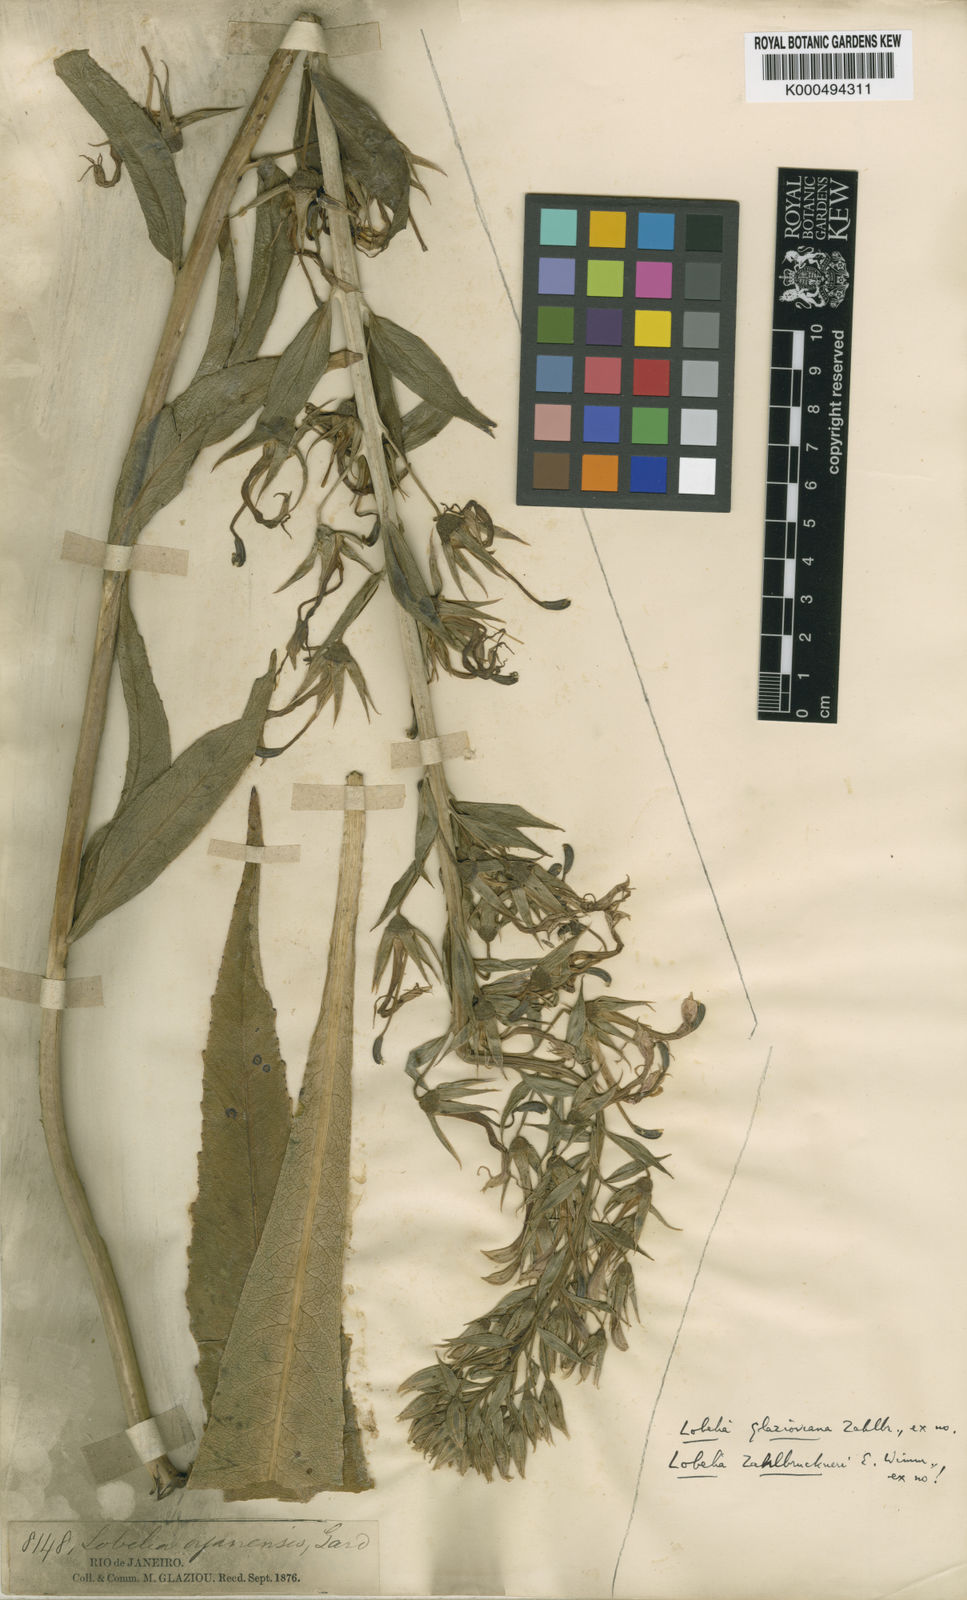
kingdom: Plantae
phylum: Tracheophyta
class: Magnoliopsida
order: Asterales
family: Campanulaceae
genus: Lobelia
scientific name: Lobelia glazioviana
